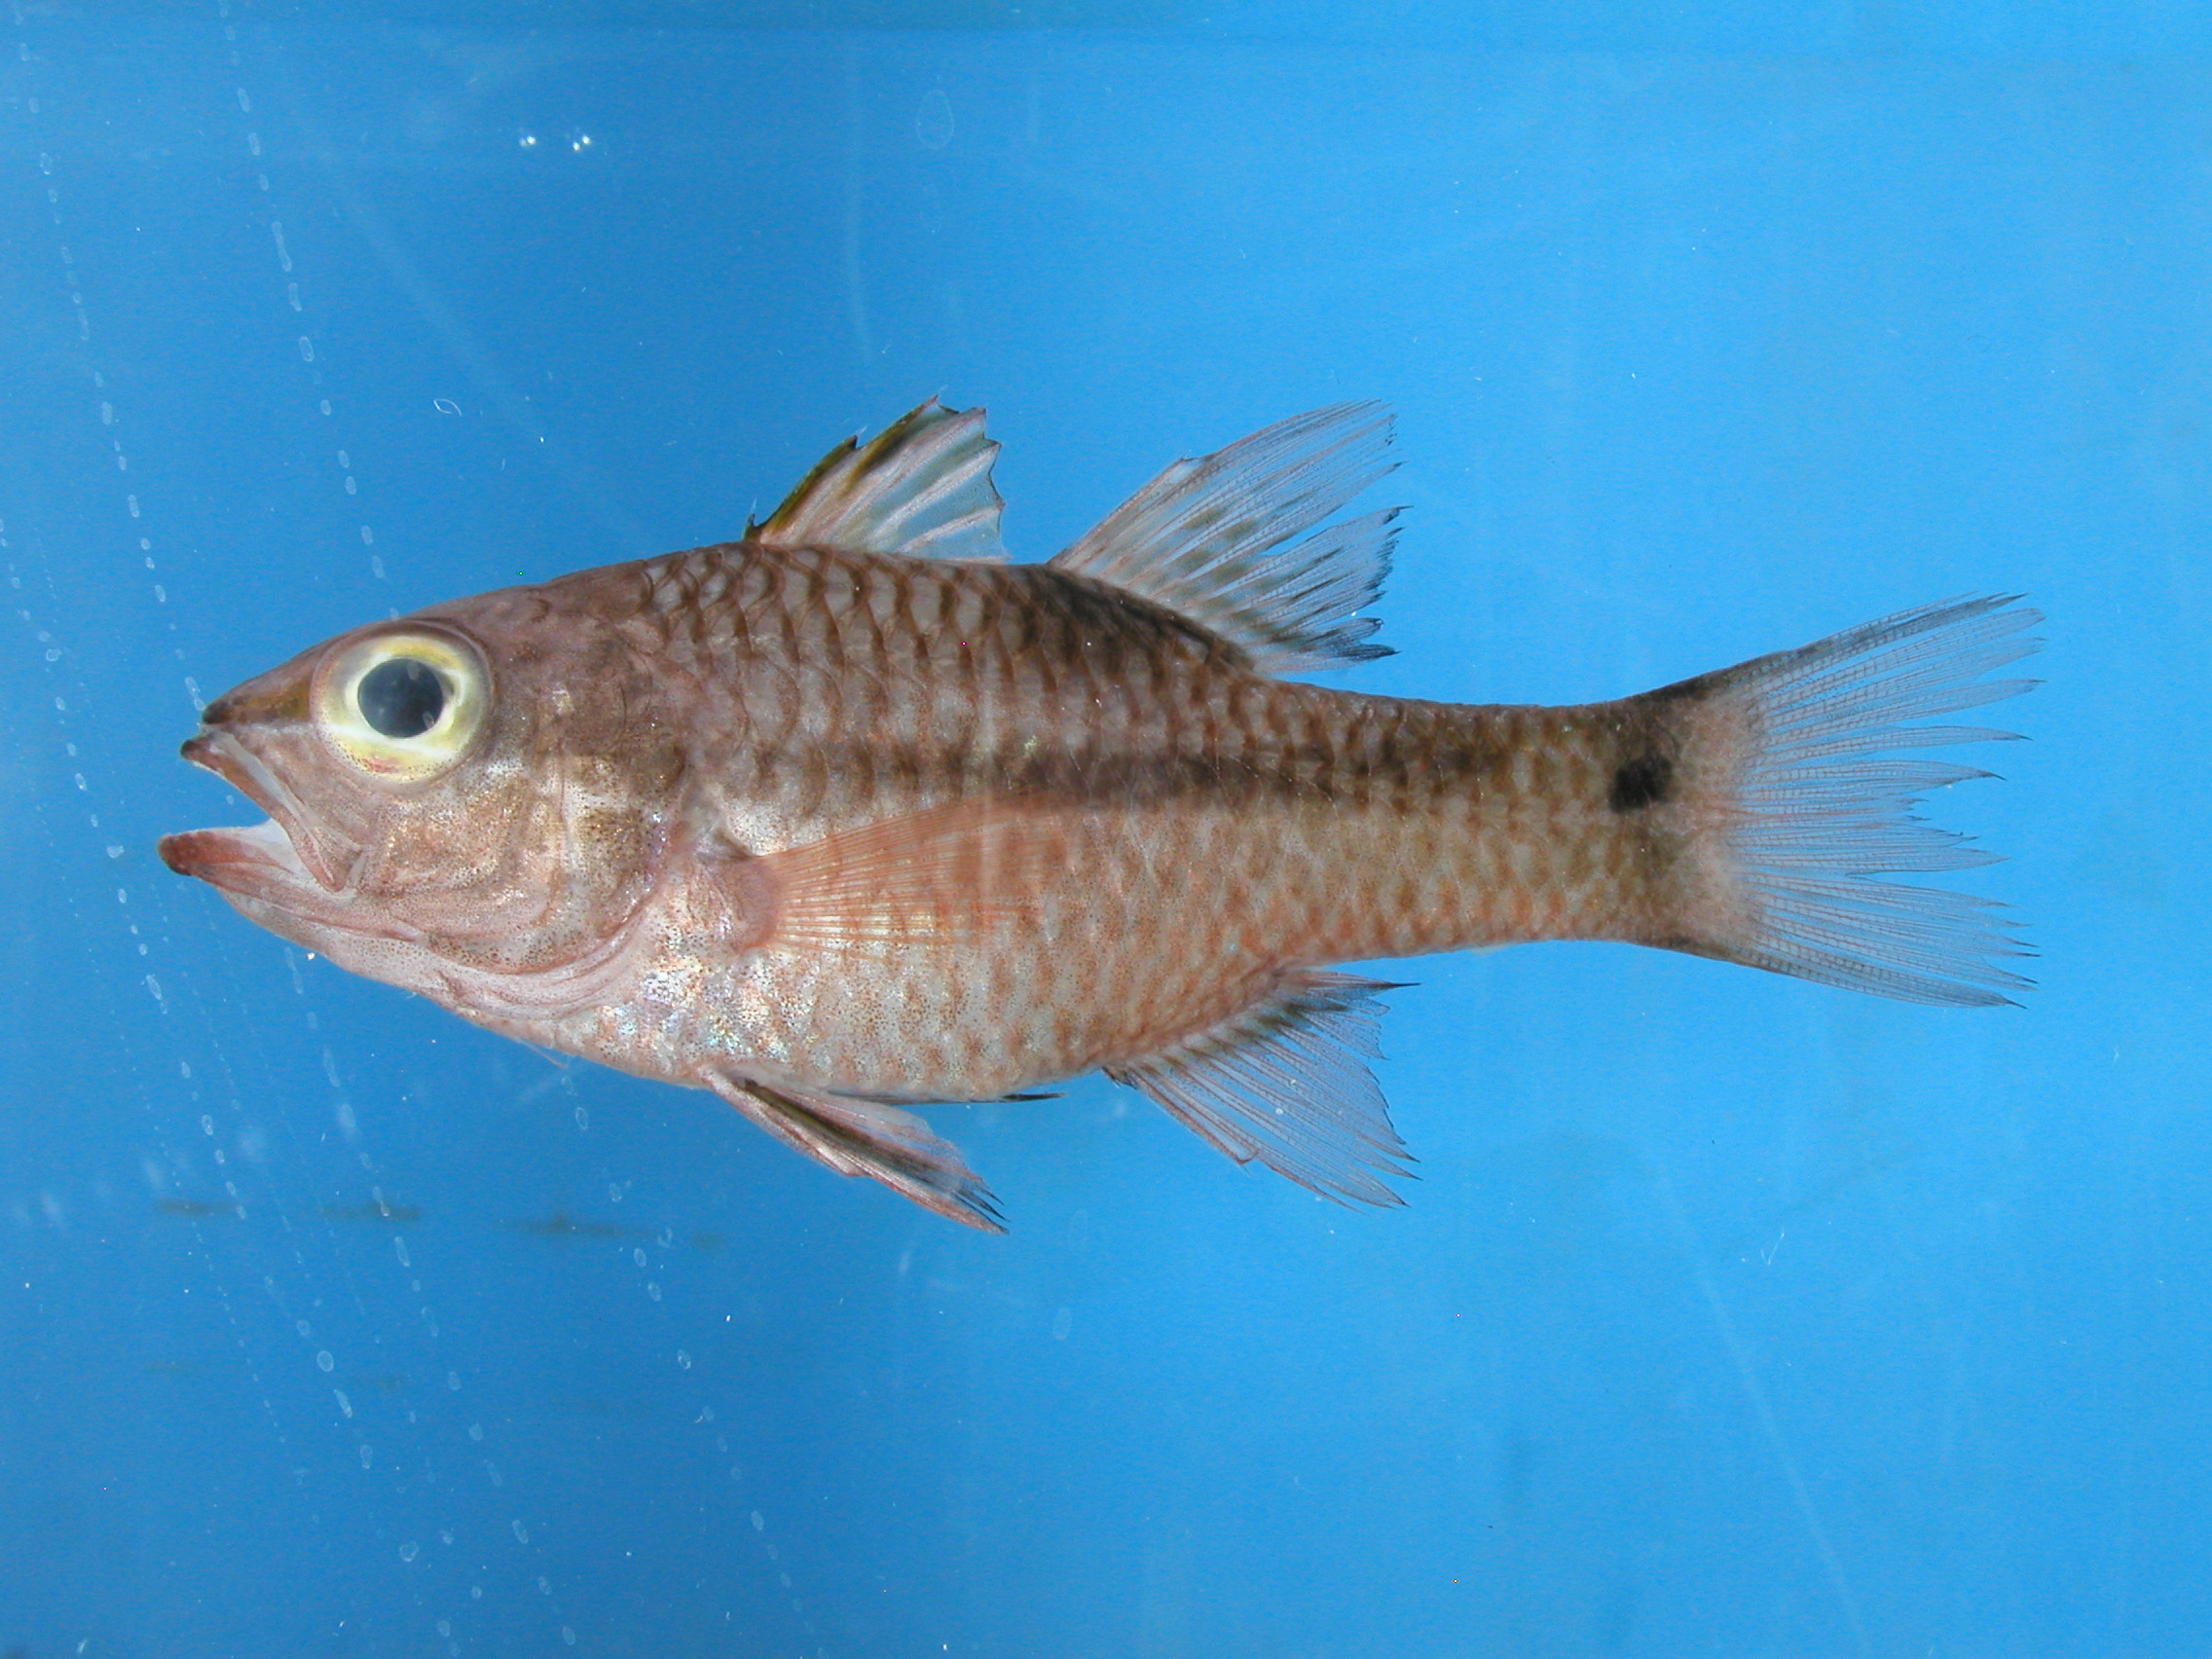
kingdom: Animalia
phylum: Chordata
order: Perciformes
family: Apogonidae
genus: Pristiapogon
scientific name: Pristiapogon kallopterus
